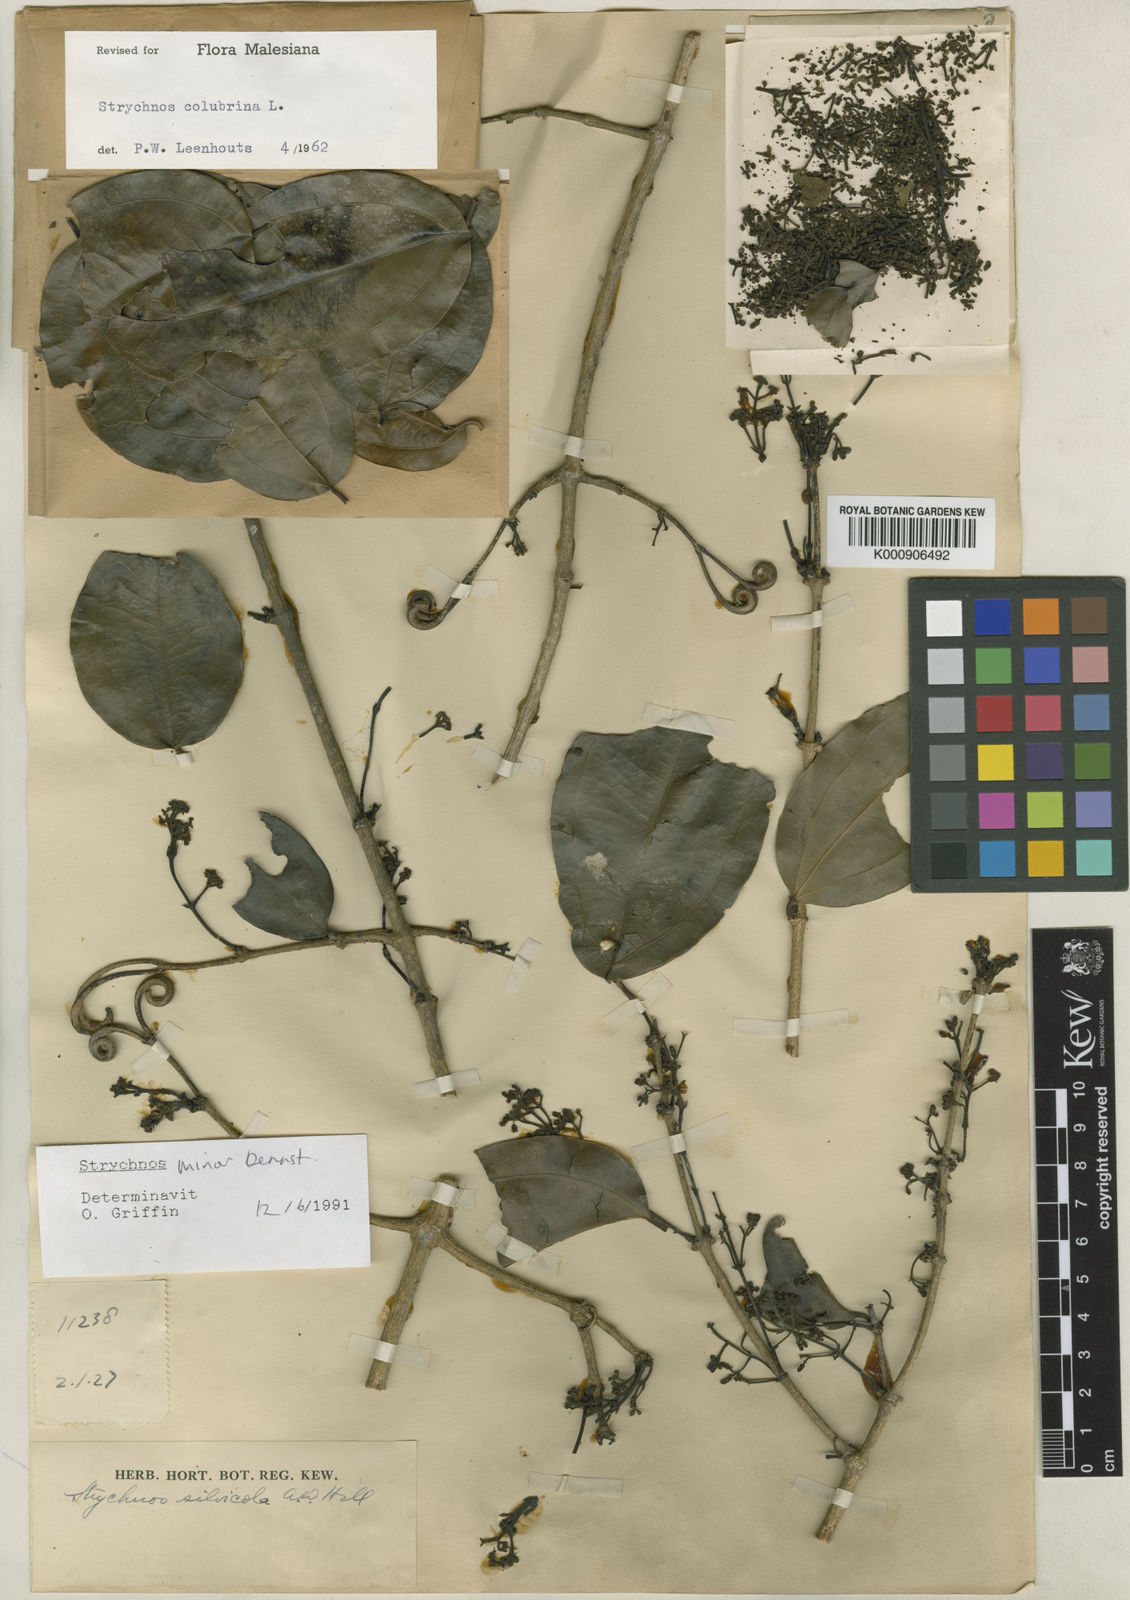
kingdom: Plantae
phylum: Tracheophyta
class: Magnoliopsida
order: Gentianales
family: Loganiaceae
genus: Strychnos
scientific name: Strychnos minor
